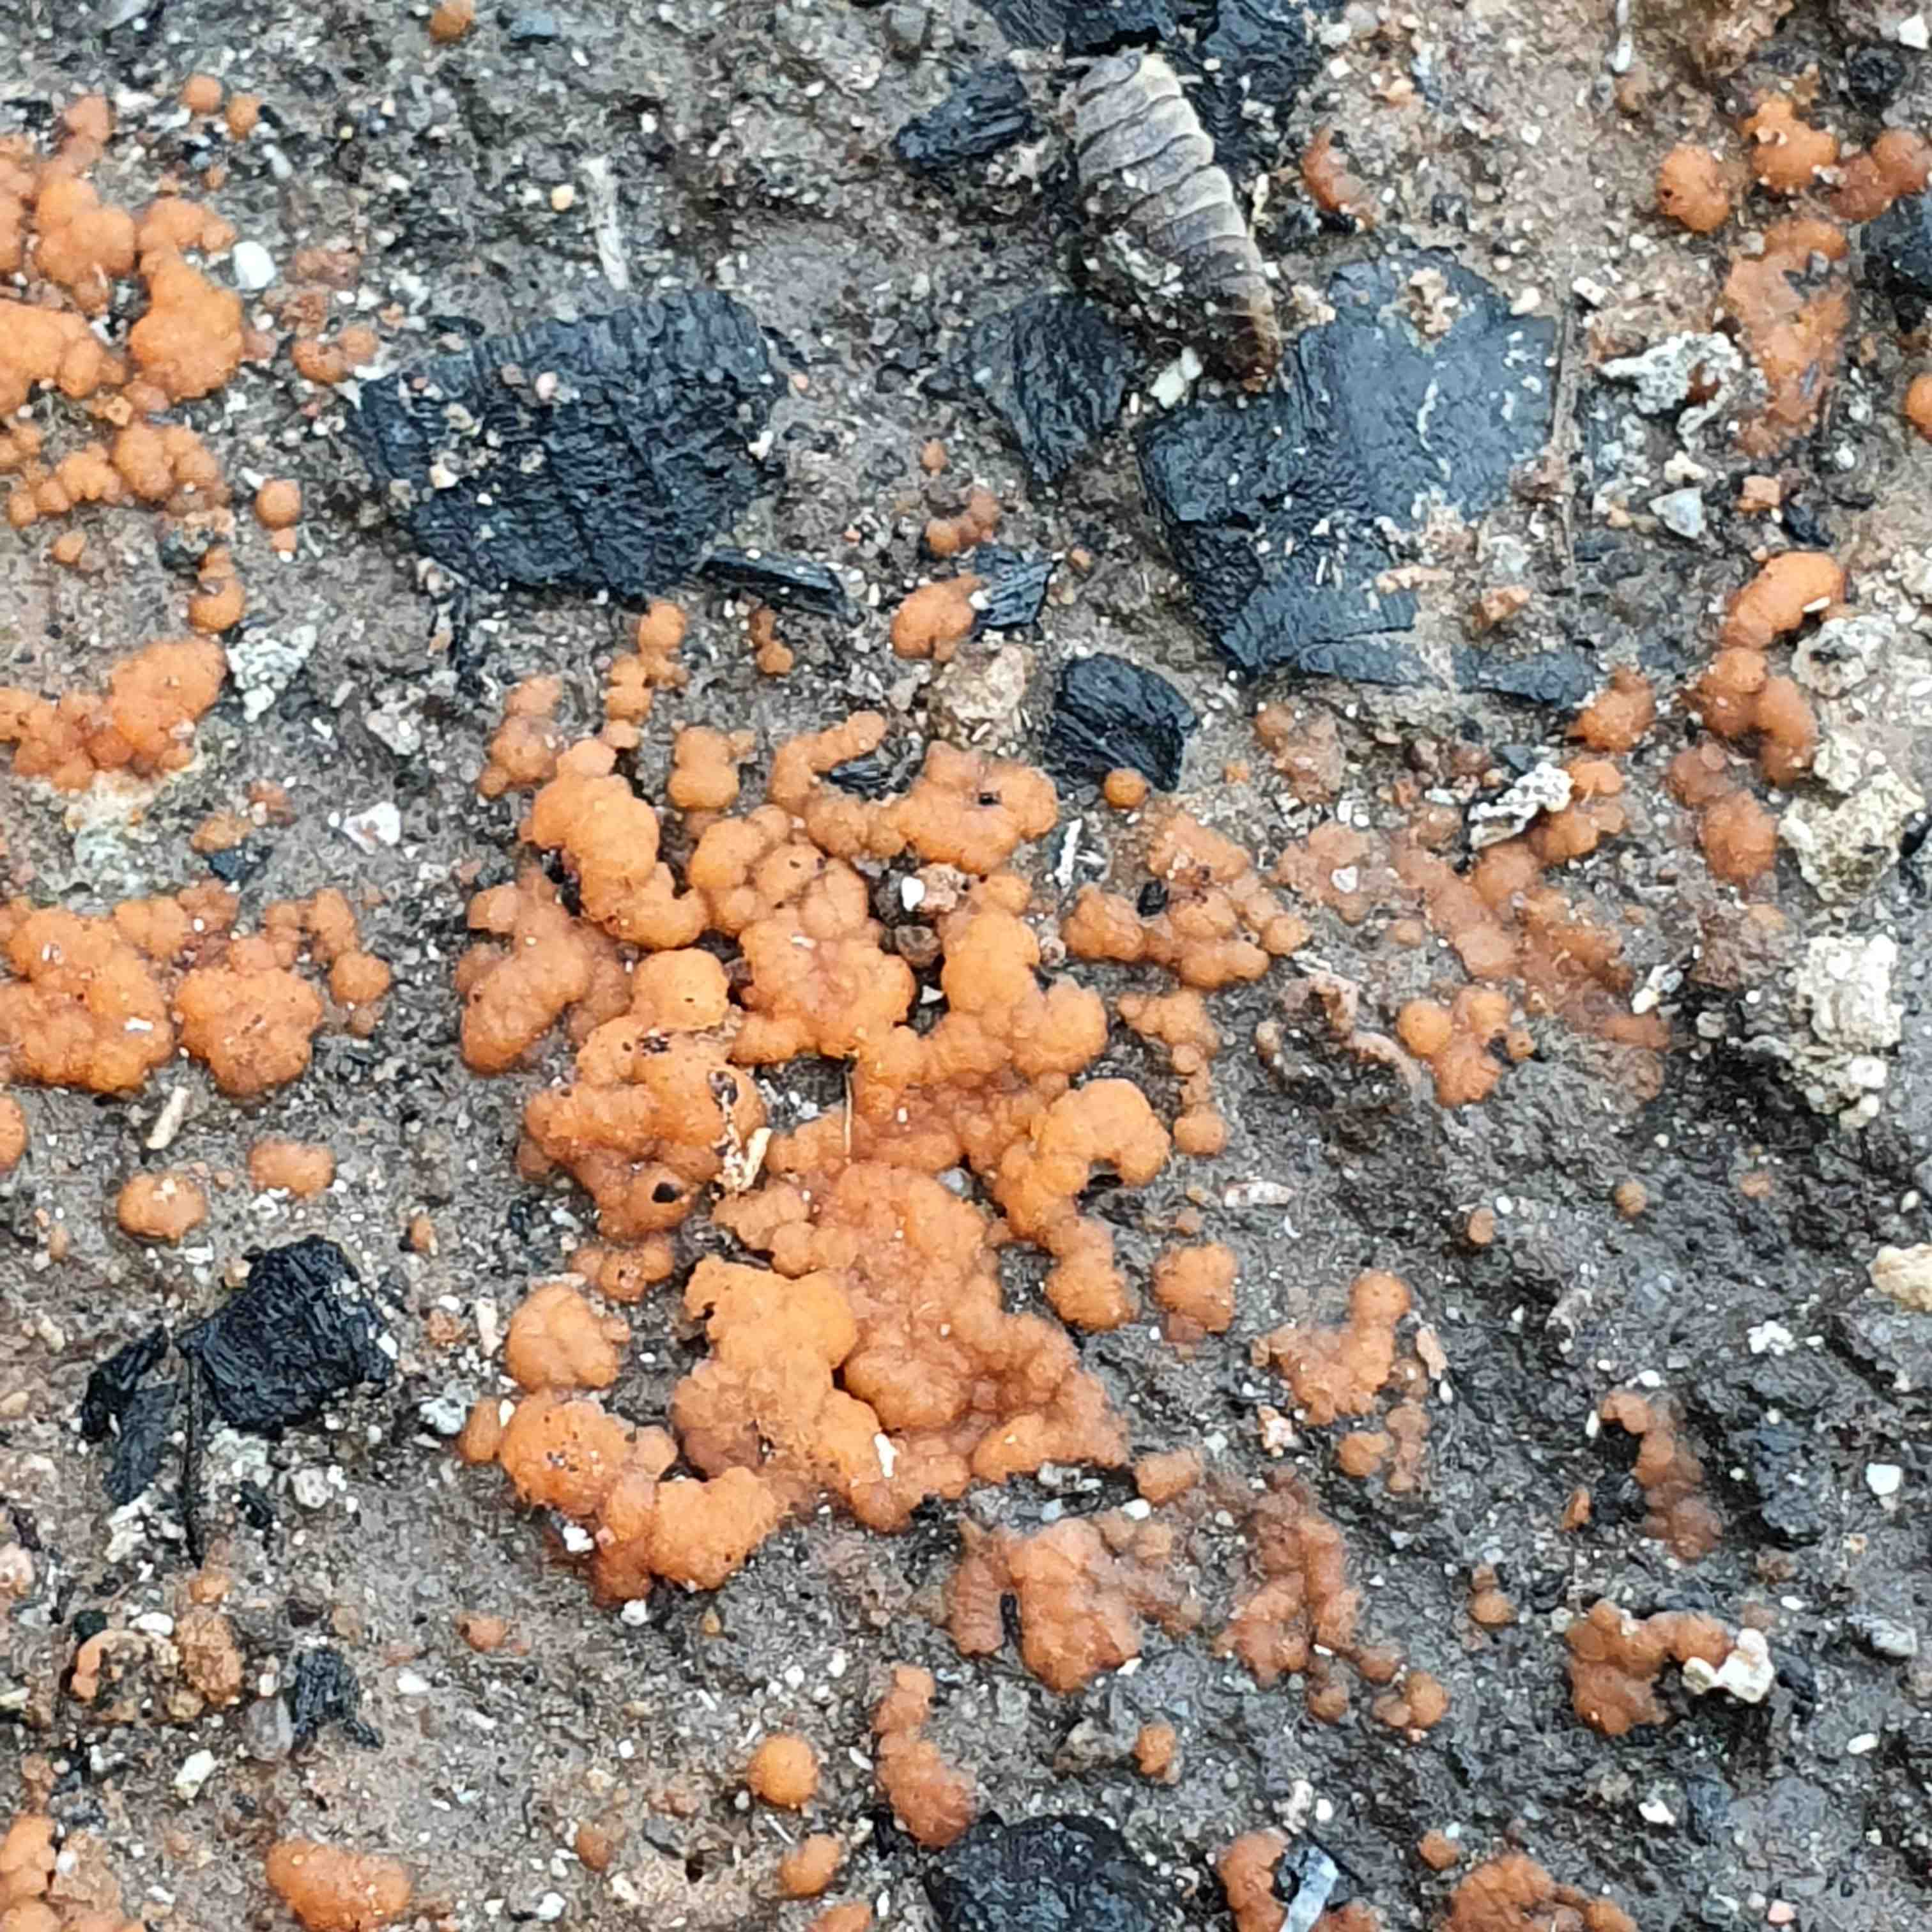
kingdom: Fungi
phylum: Ascomycota
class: Pezizomycetes
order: Pezizales
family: Pyronemataceae
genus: Pyronema
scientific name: Pyronema omphalodes
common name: glat askebæger
